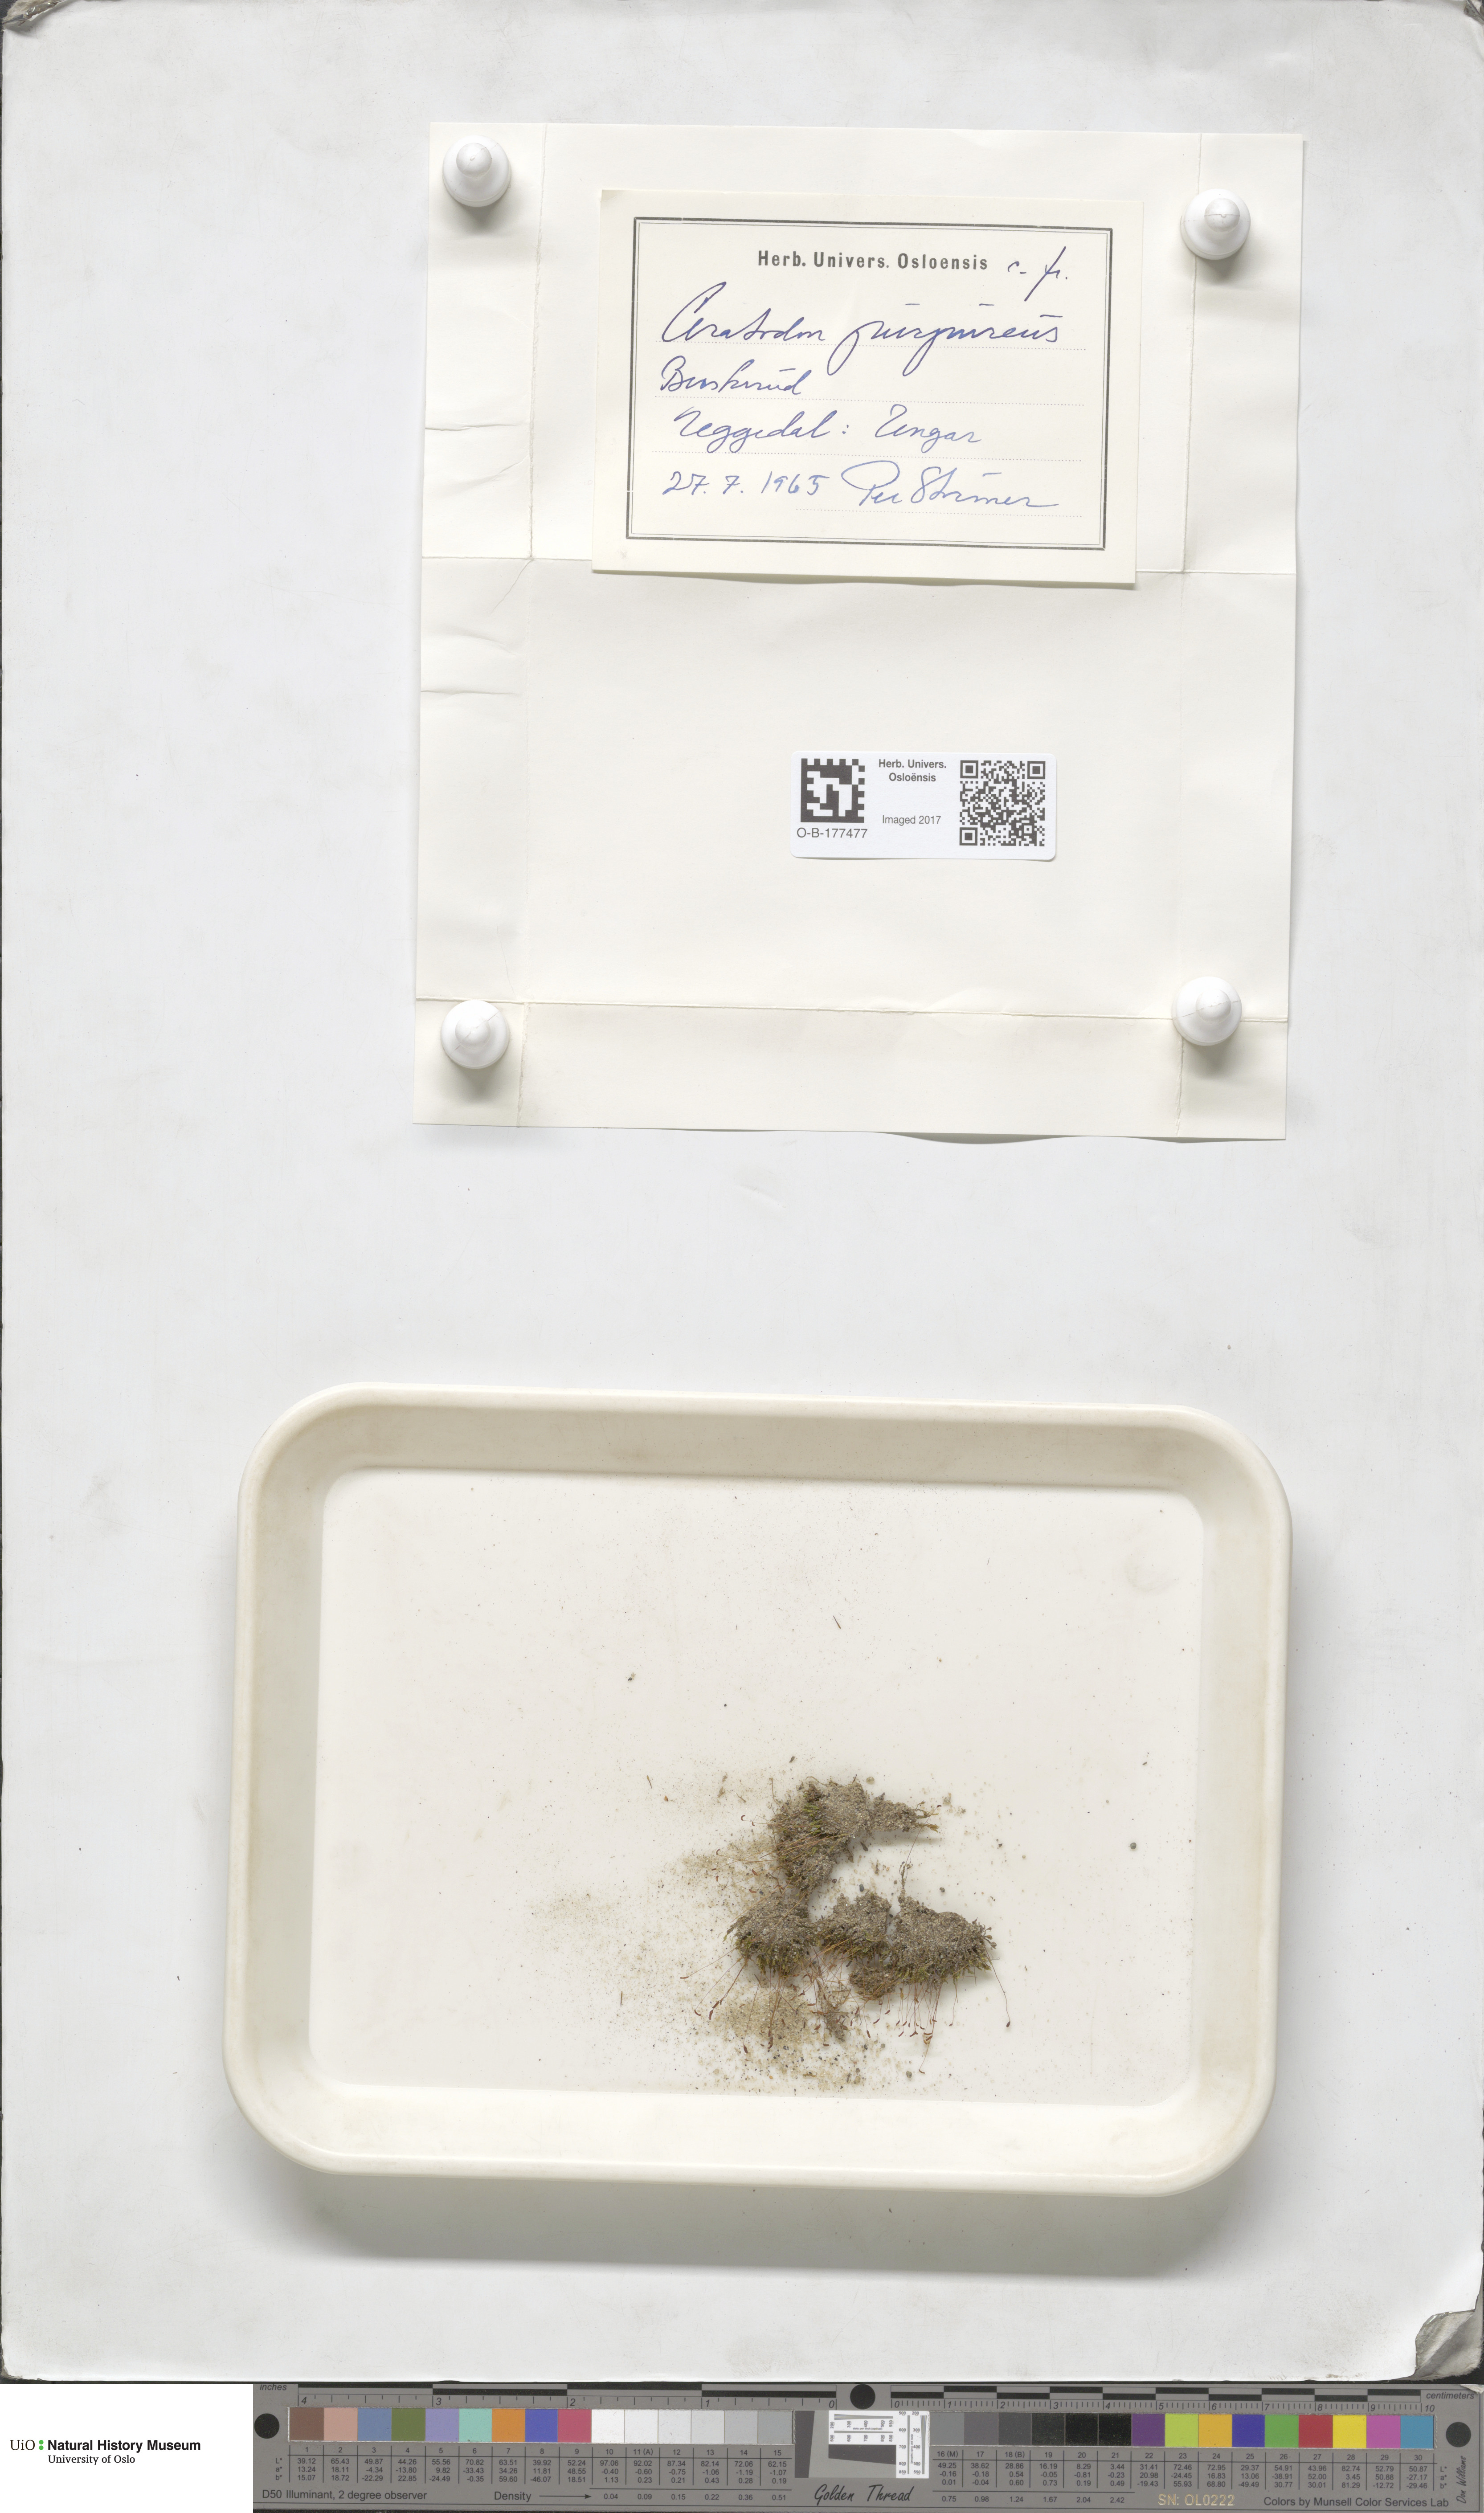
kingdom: Plantae
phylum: Bryophyta
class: Bryopsida
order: Dicranales
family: Ditrichaceae
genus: Ceratodon
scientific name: Ceratodon purpureus
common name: Redshank
